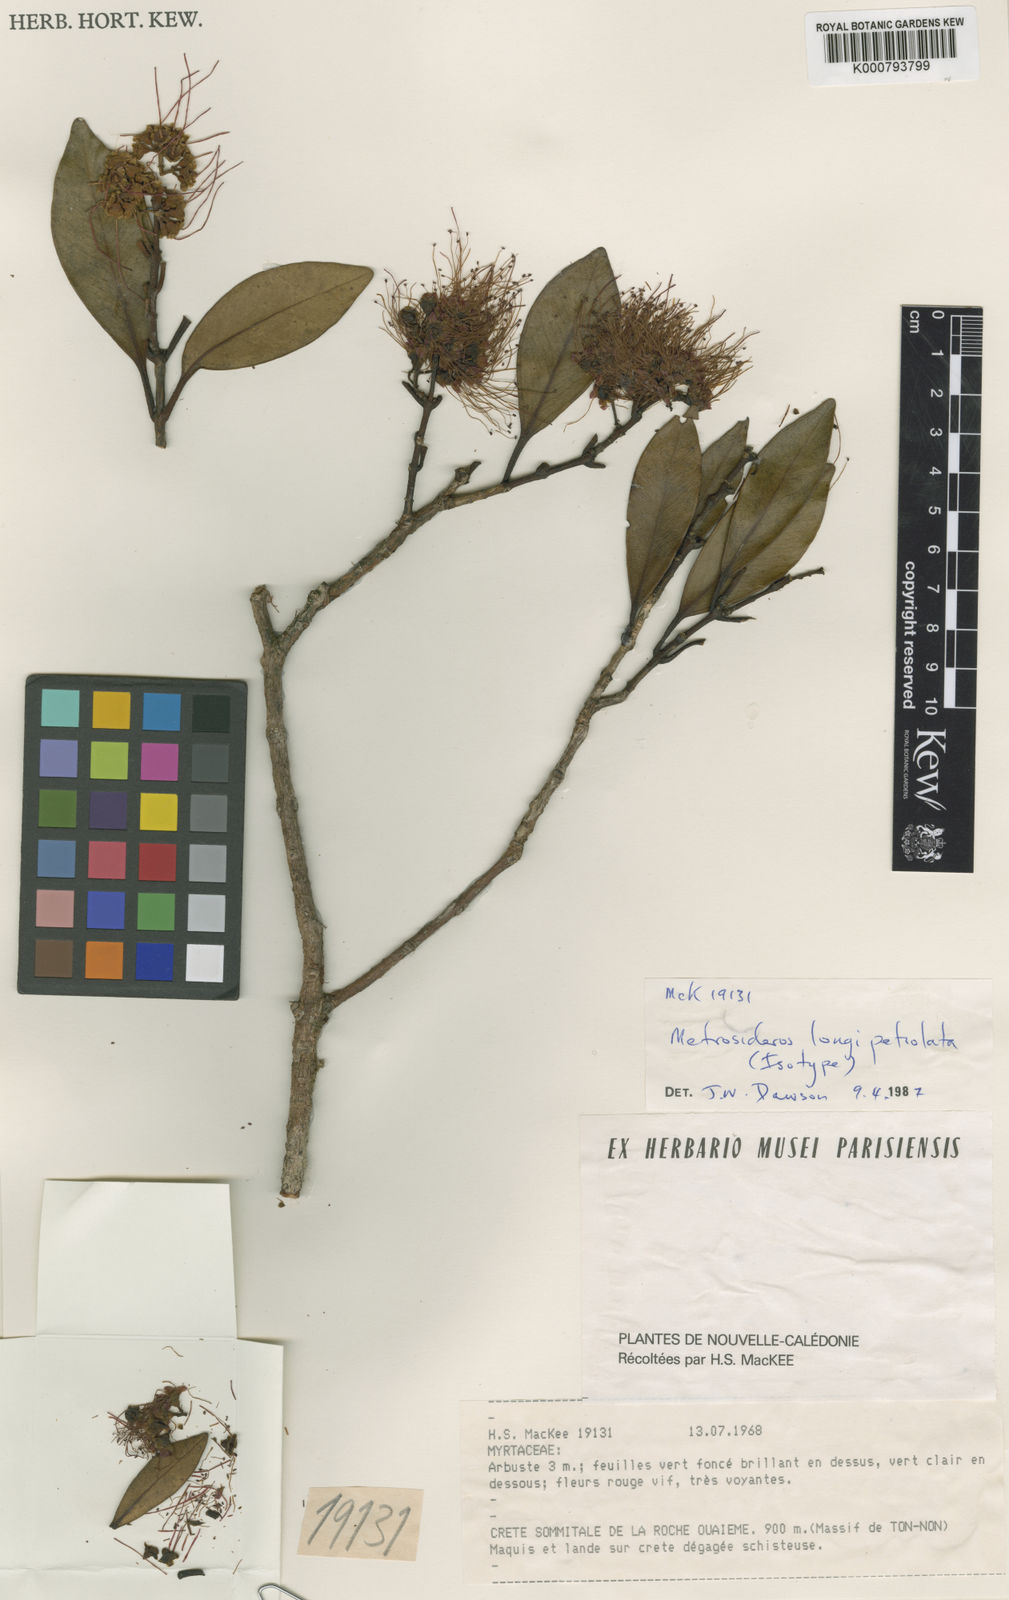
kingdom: Plantae
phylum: Tracheophyta
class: Magnoliopsida
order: Myrtales
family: Myrtaceae
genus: Metrosideros
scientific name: Metrosideros longipetiolata
